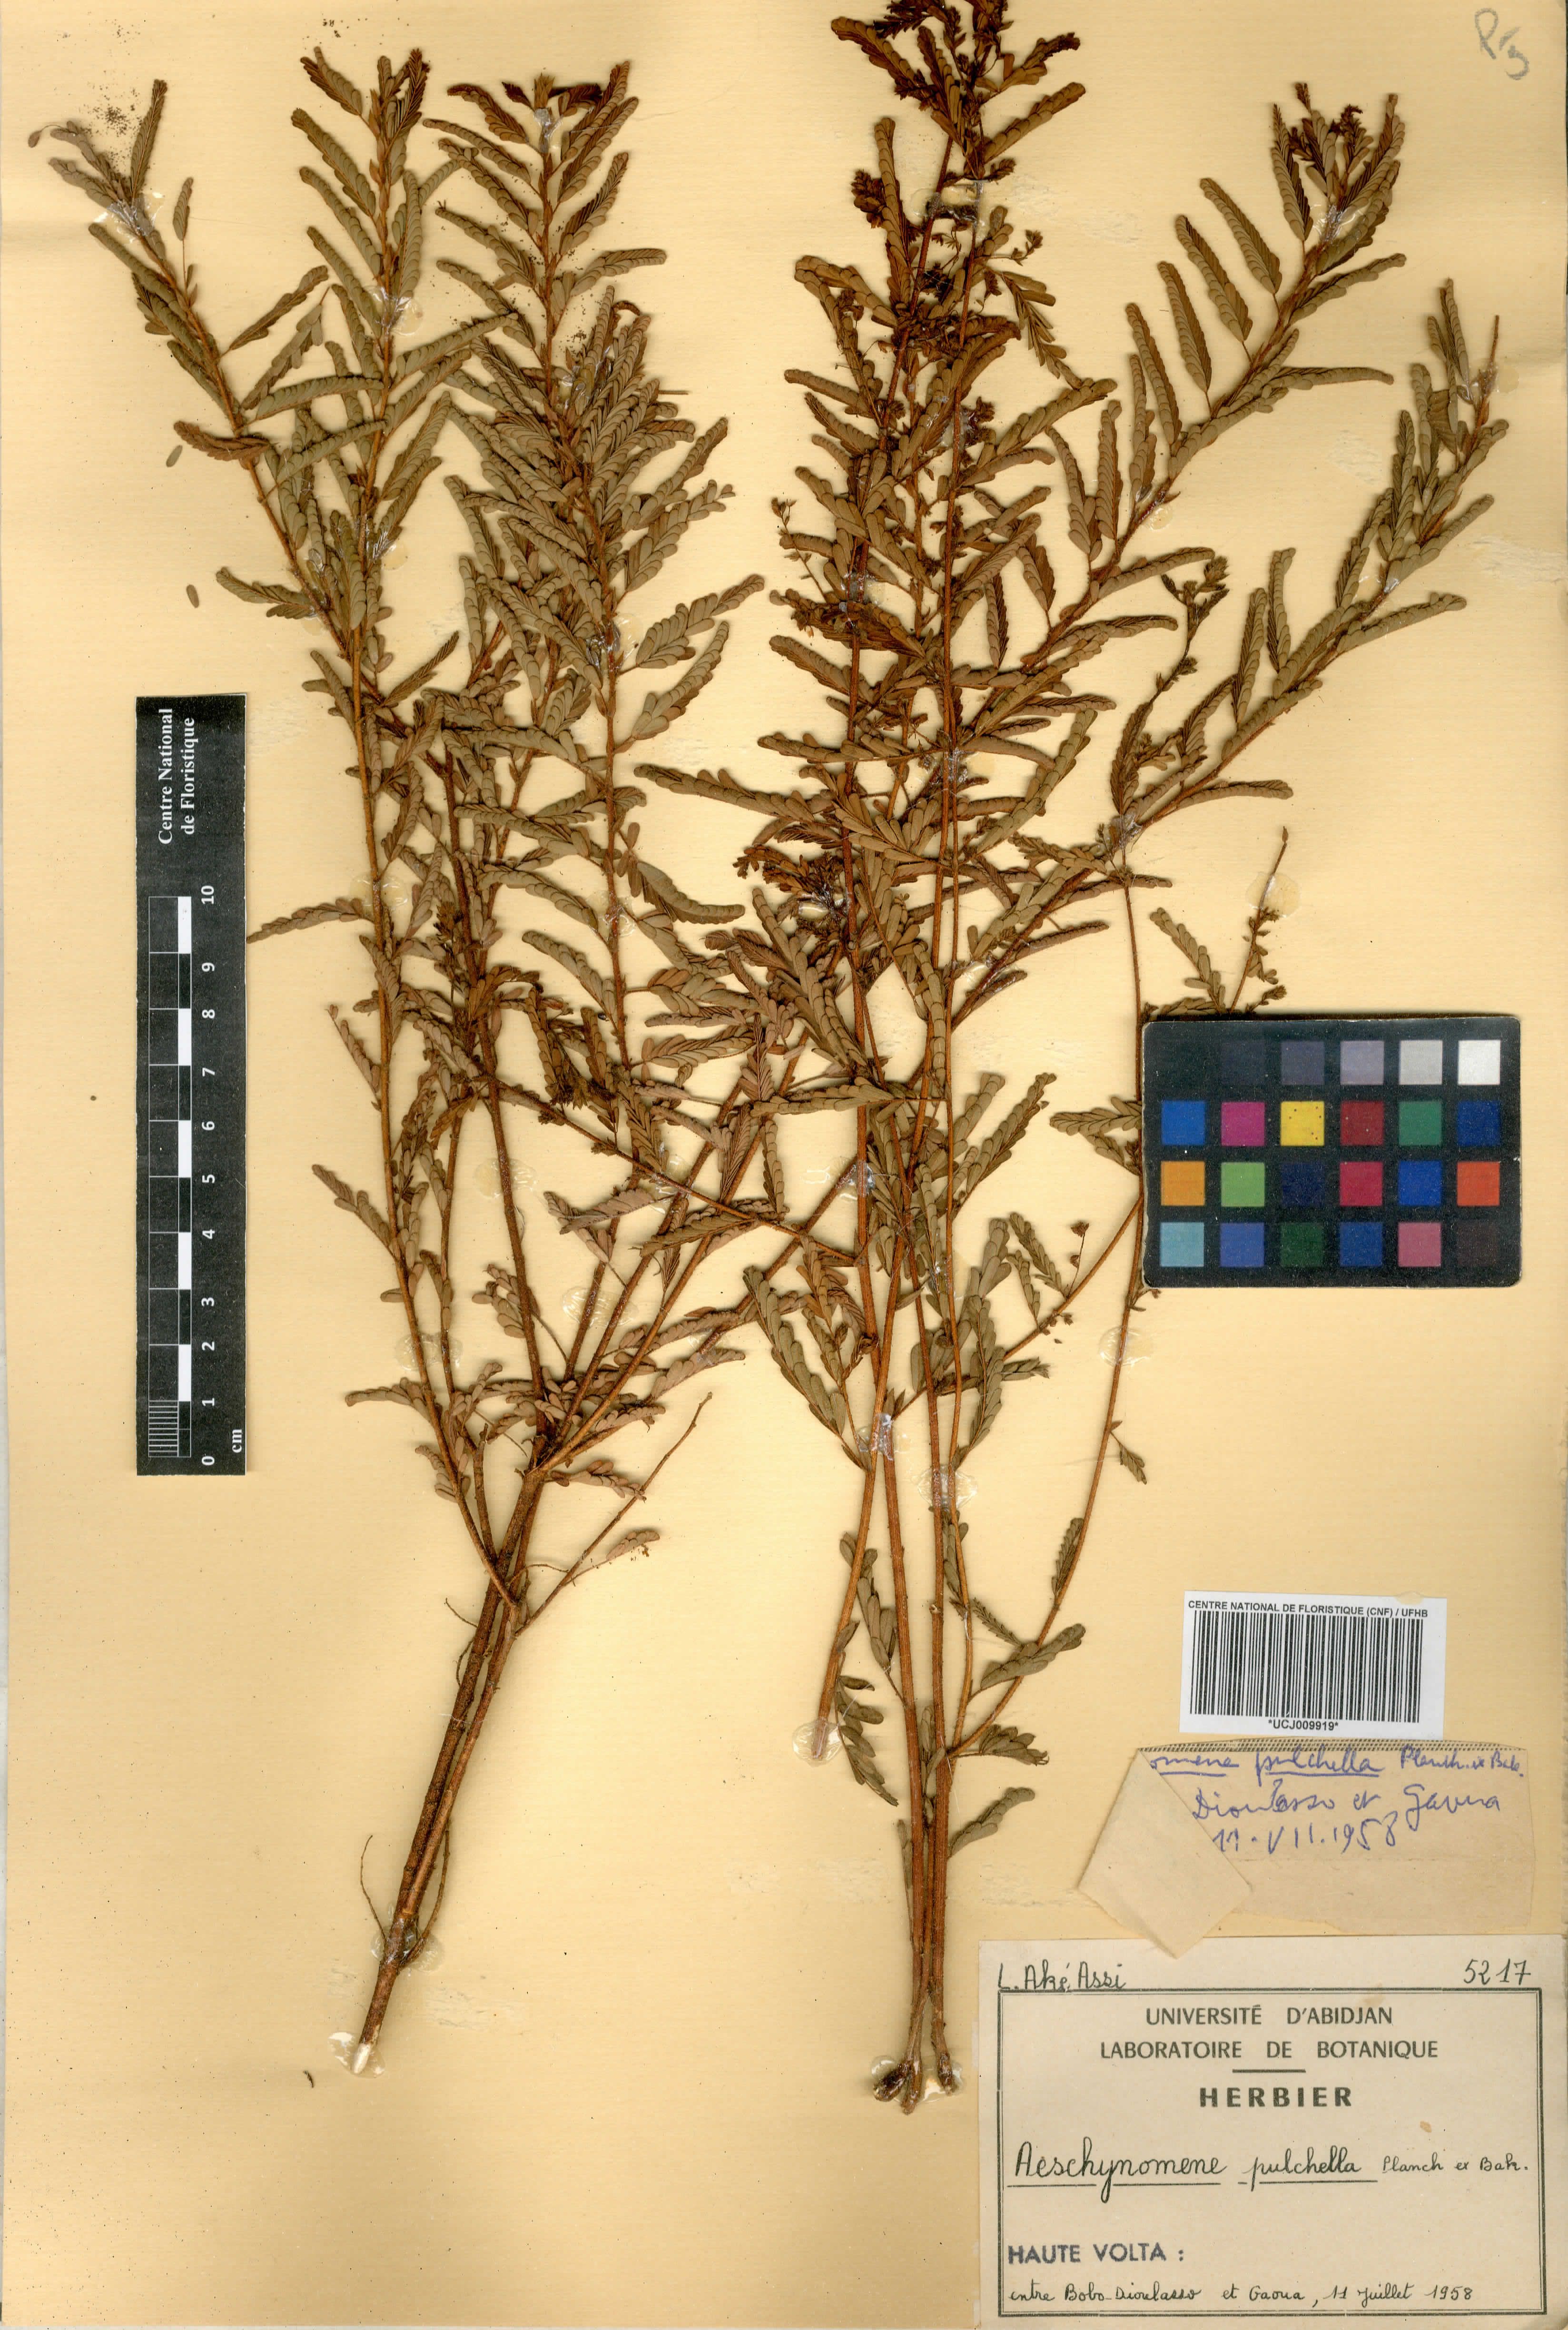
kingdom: Plantae
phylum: Tracheophyta
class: Magnoliopsida
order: Fabales
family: Fabaceae
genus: Aeschynomene
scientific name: Aeschynomene pulchella
